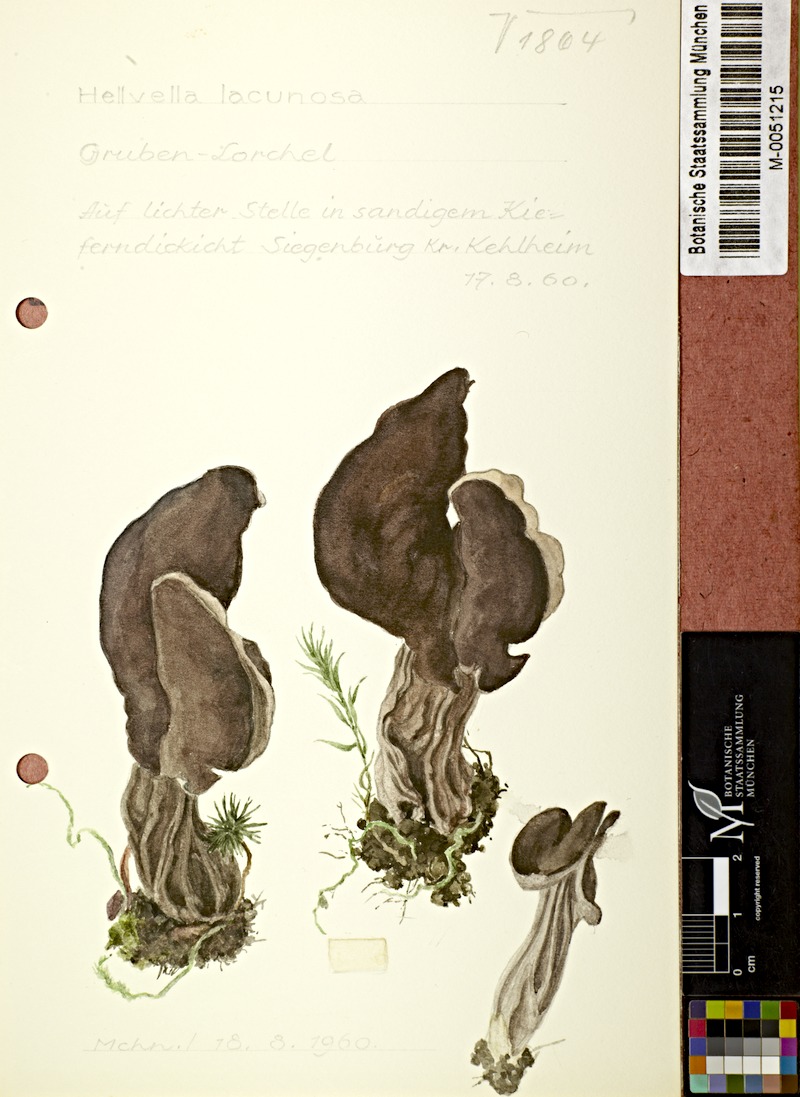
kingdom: Fungi
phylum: Ascomycota
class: Pezizomycetes
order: Pezizales
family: Helvellaceae
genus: Helvella
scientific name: Helvella lacunosa
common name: Elfin saddle
